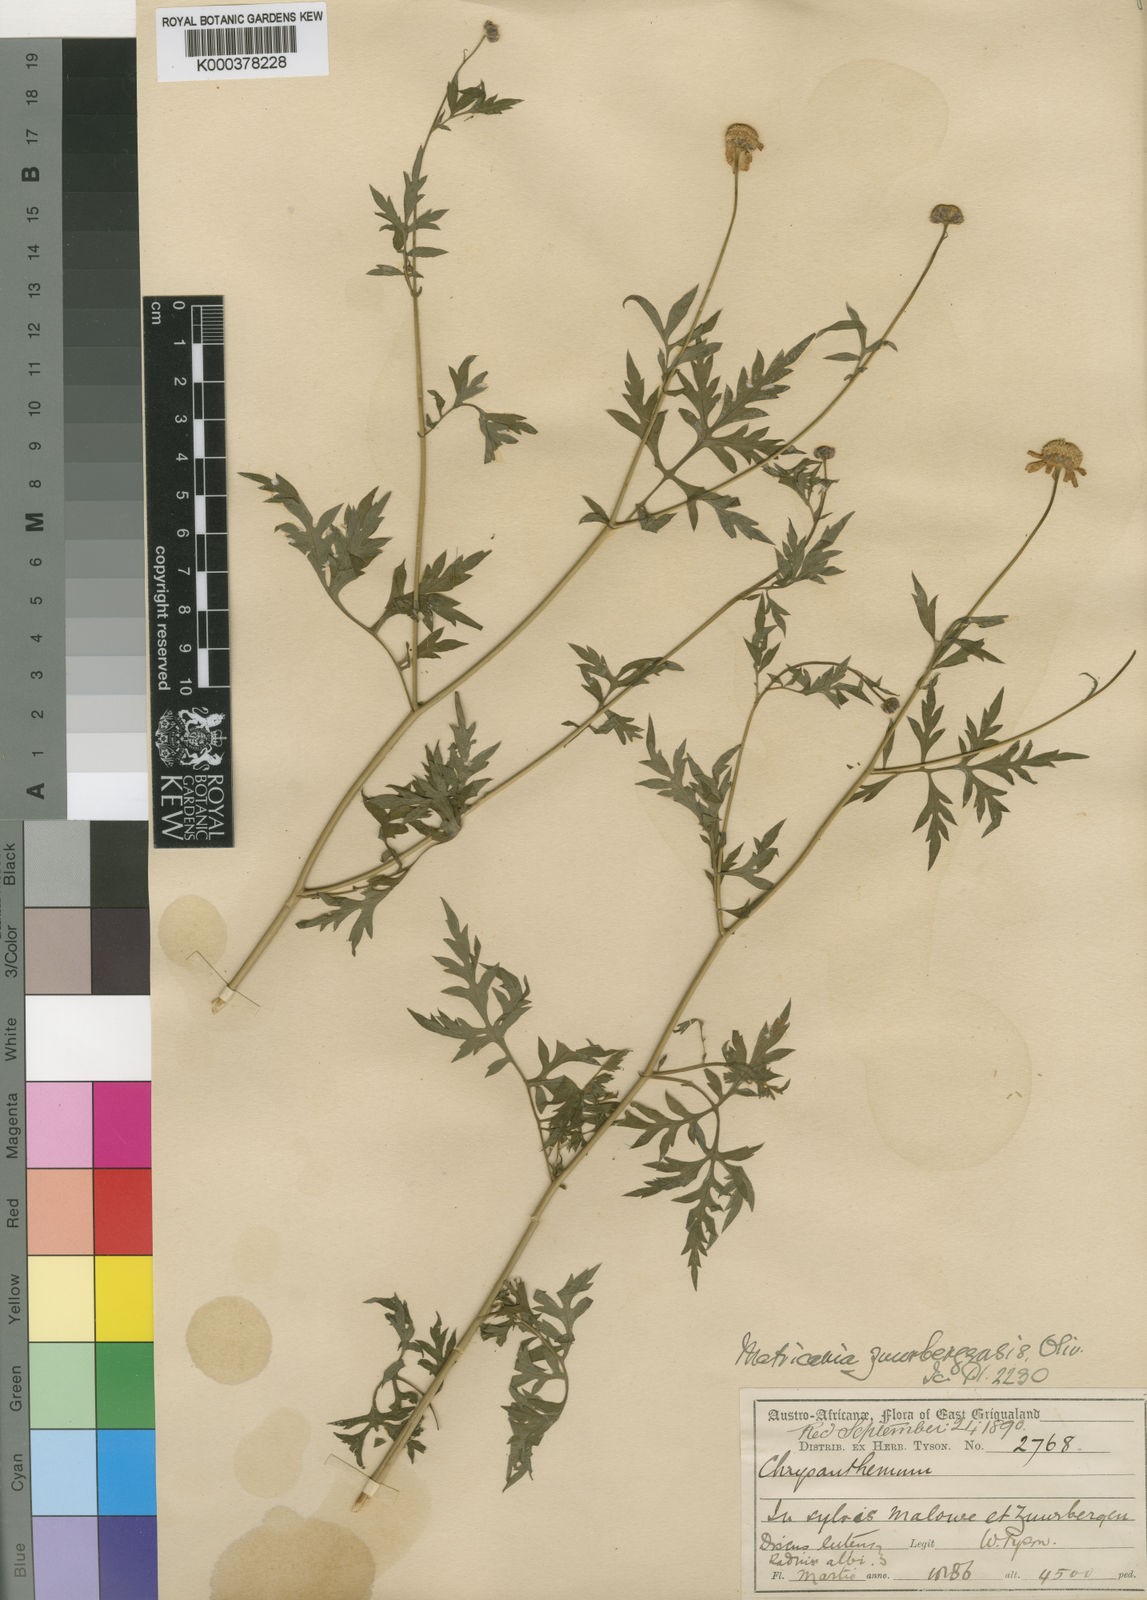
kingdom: Plantae
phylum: Tracheophyta
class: Magnoliopsida
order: Asterales
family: Asteraceae
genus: Hilliardia
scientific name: Hilliardia zuurbergensis
